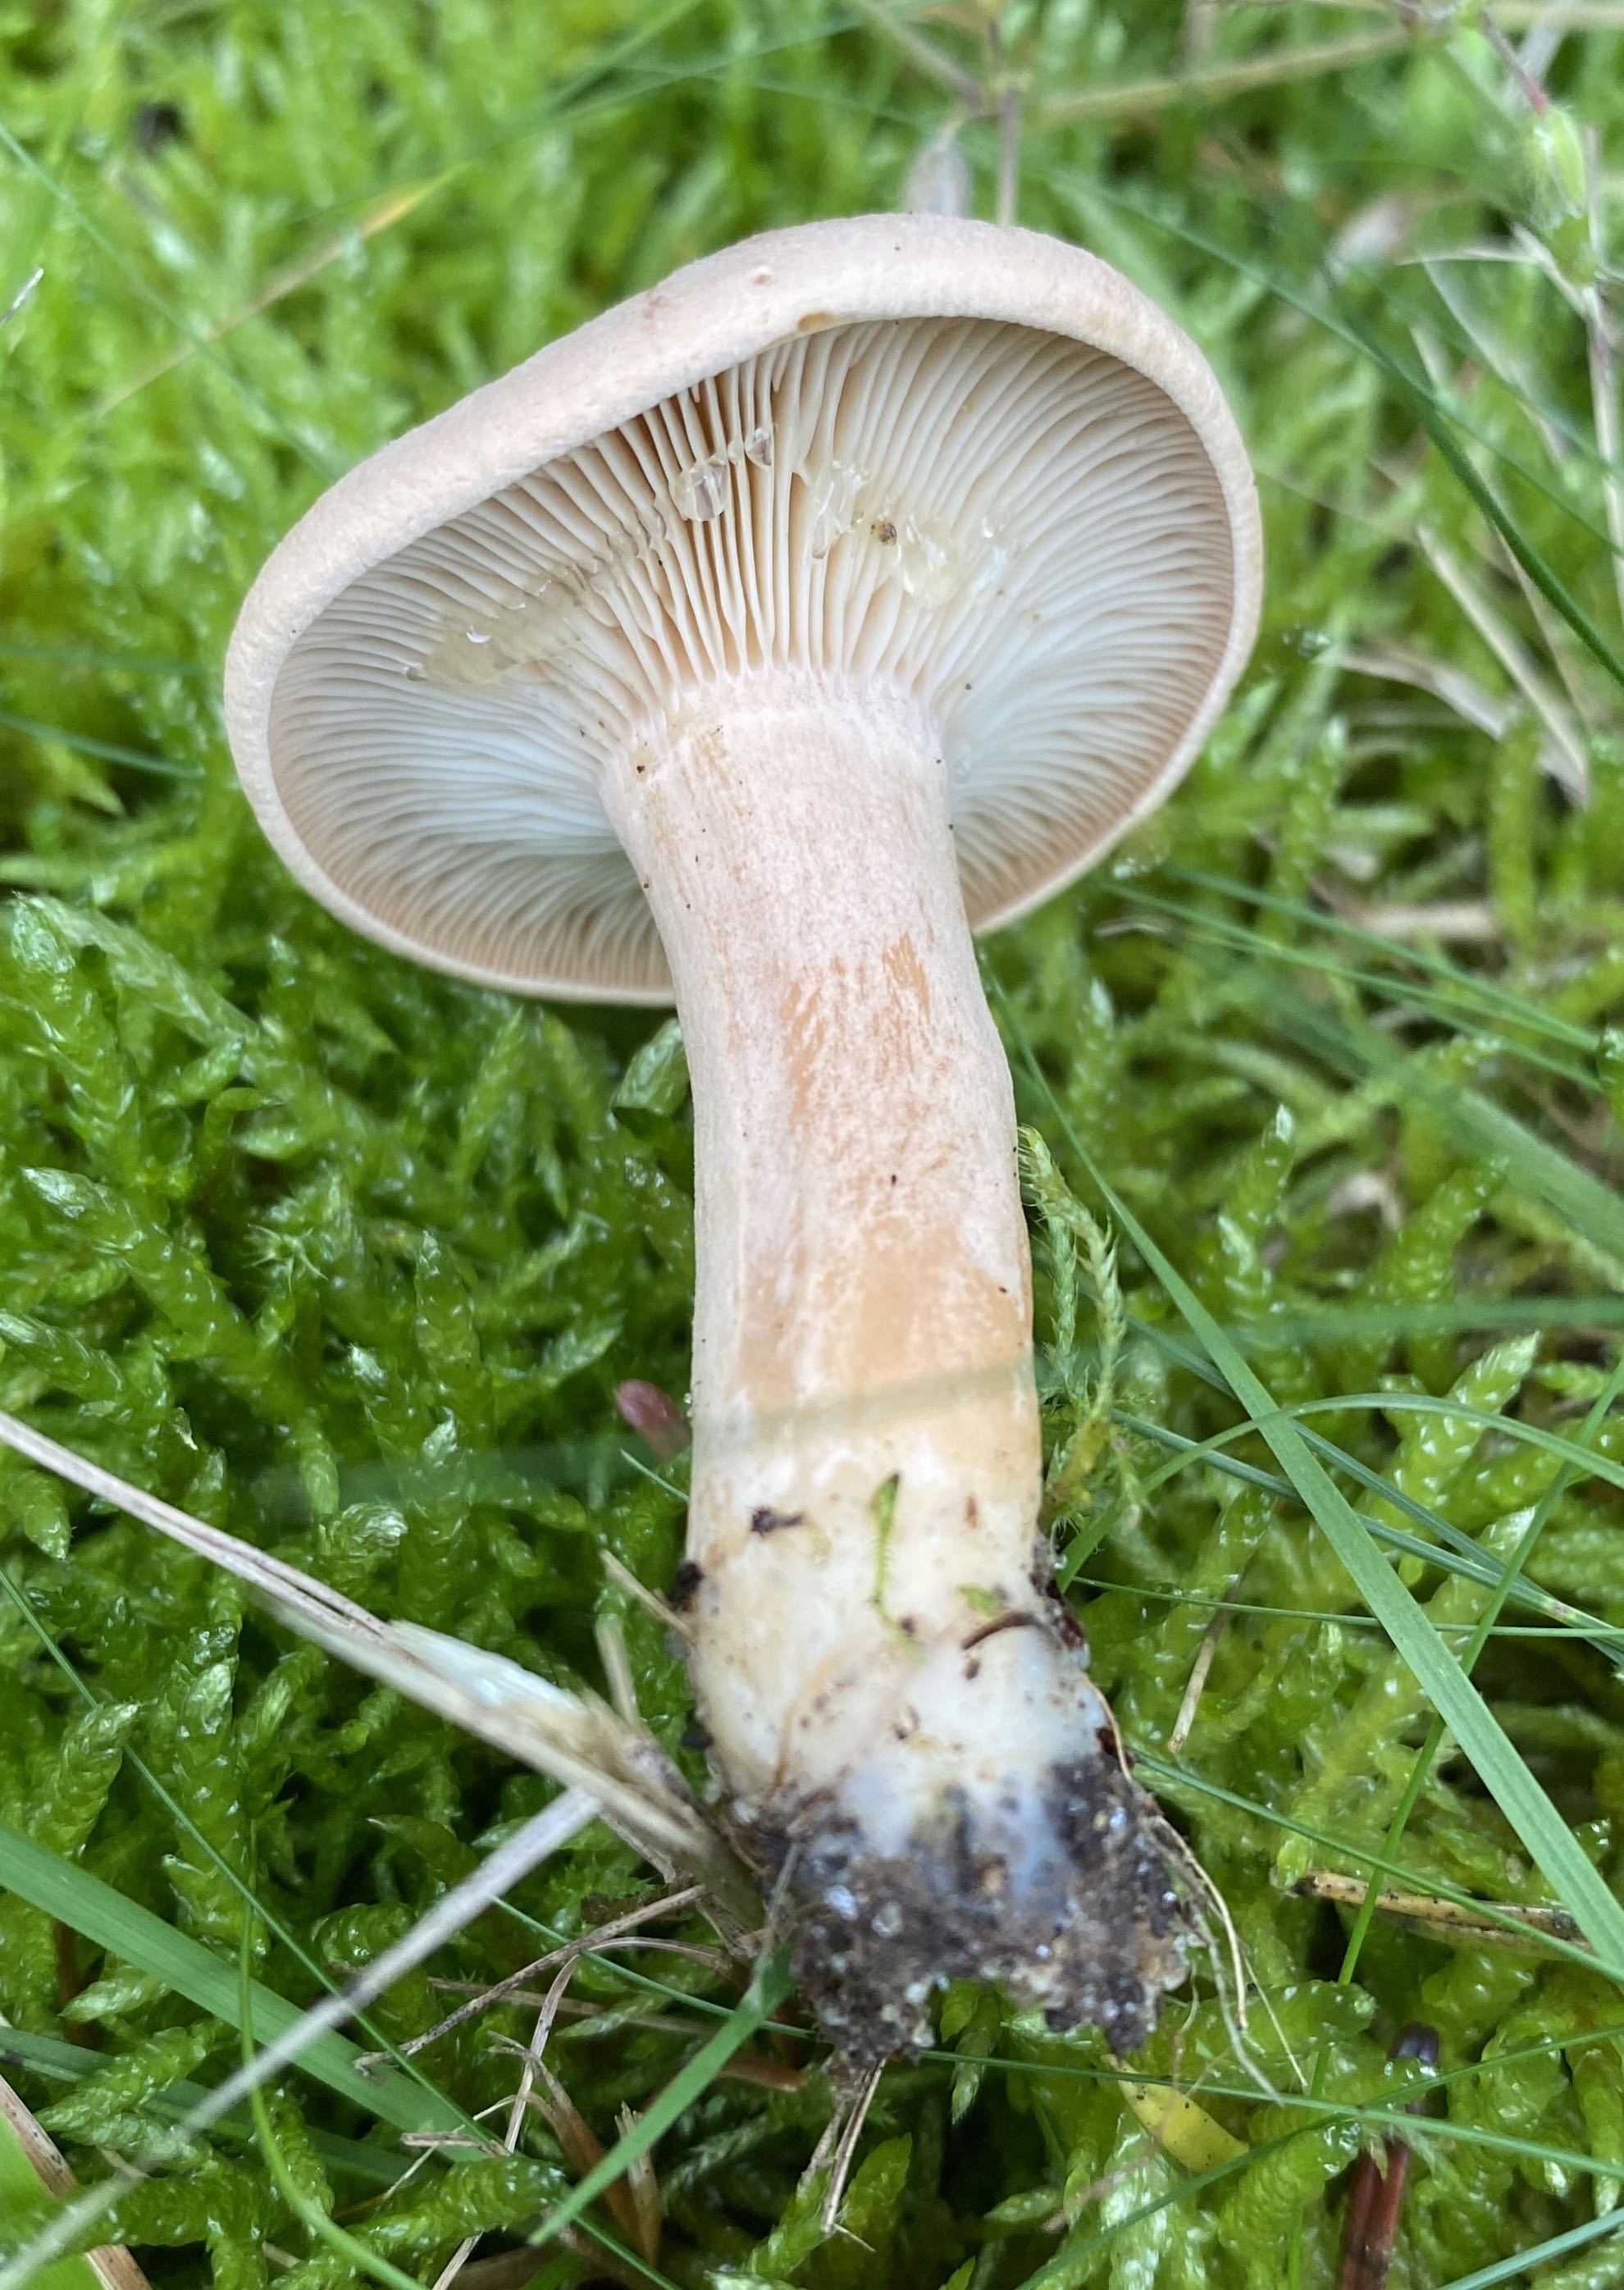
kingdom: Fungi
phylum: Basidiomycota
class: Agaricomycetes
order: Russulales
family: Russulaceae
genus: Lactarius
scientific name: Lactarius helvus
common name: mose-mælkehat
